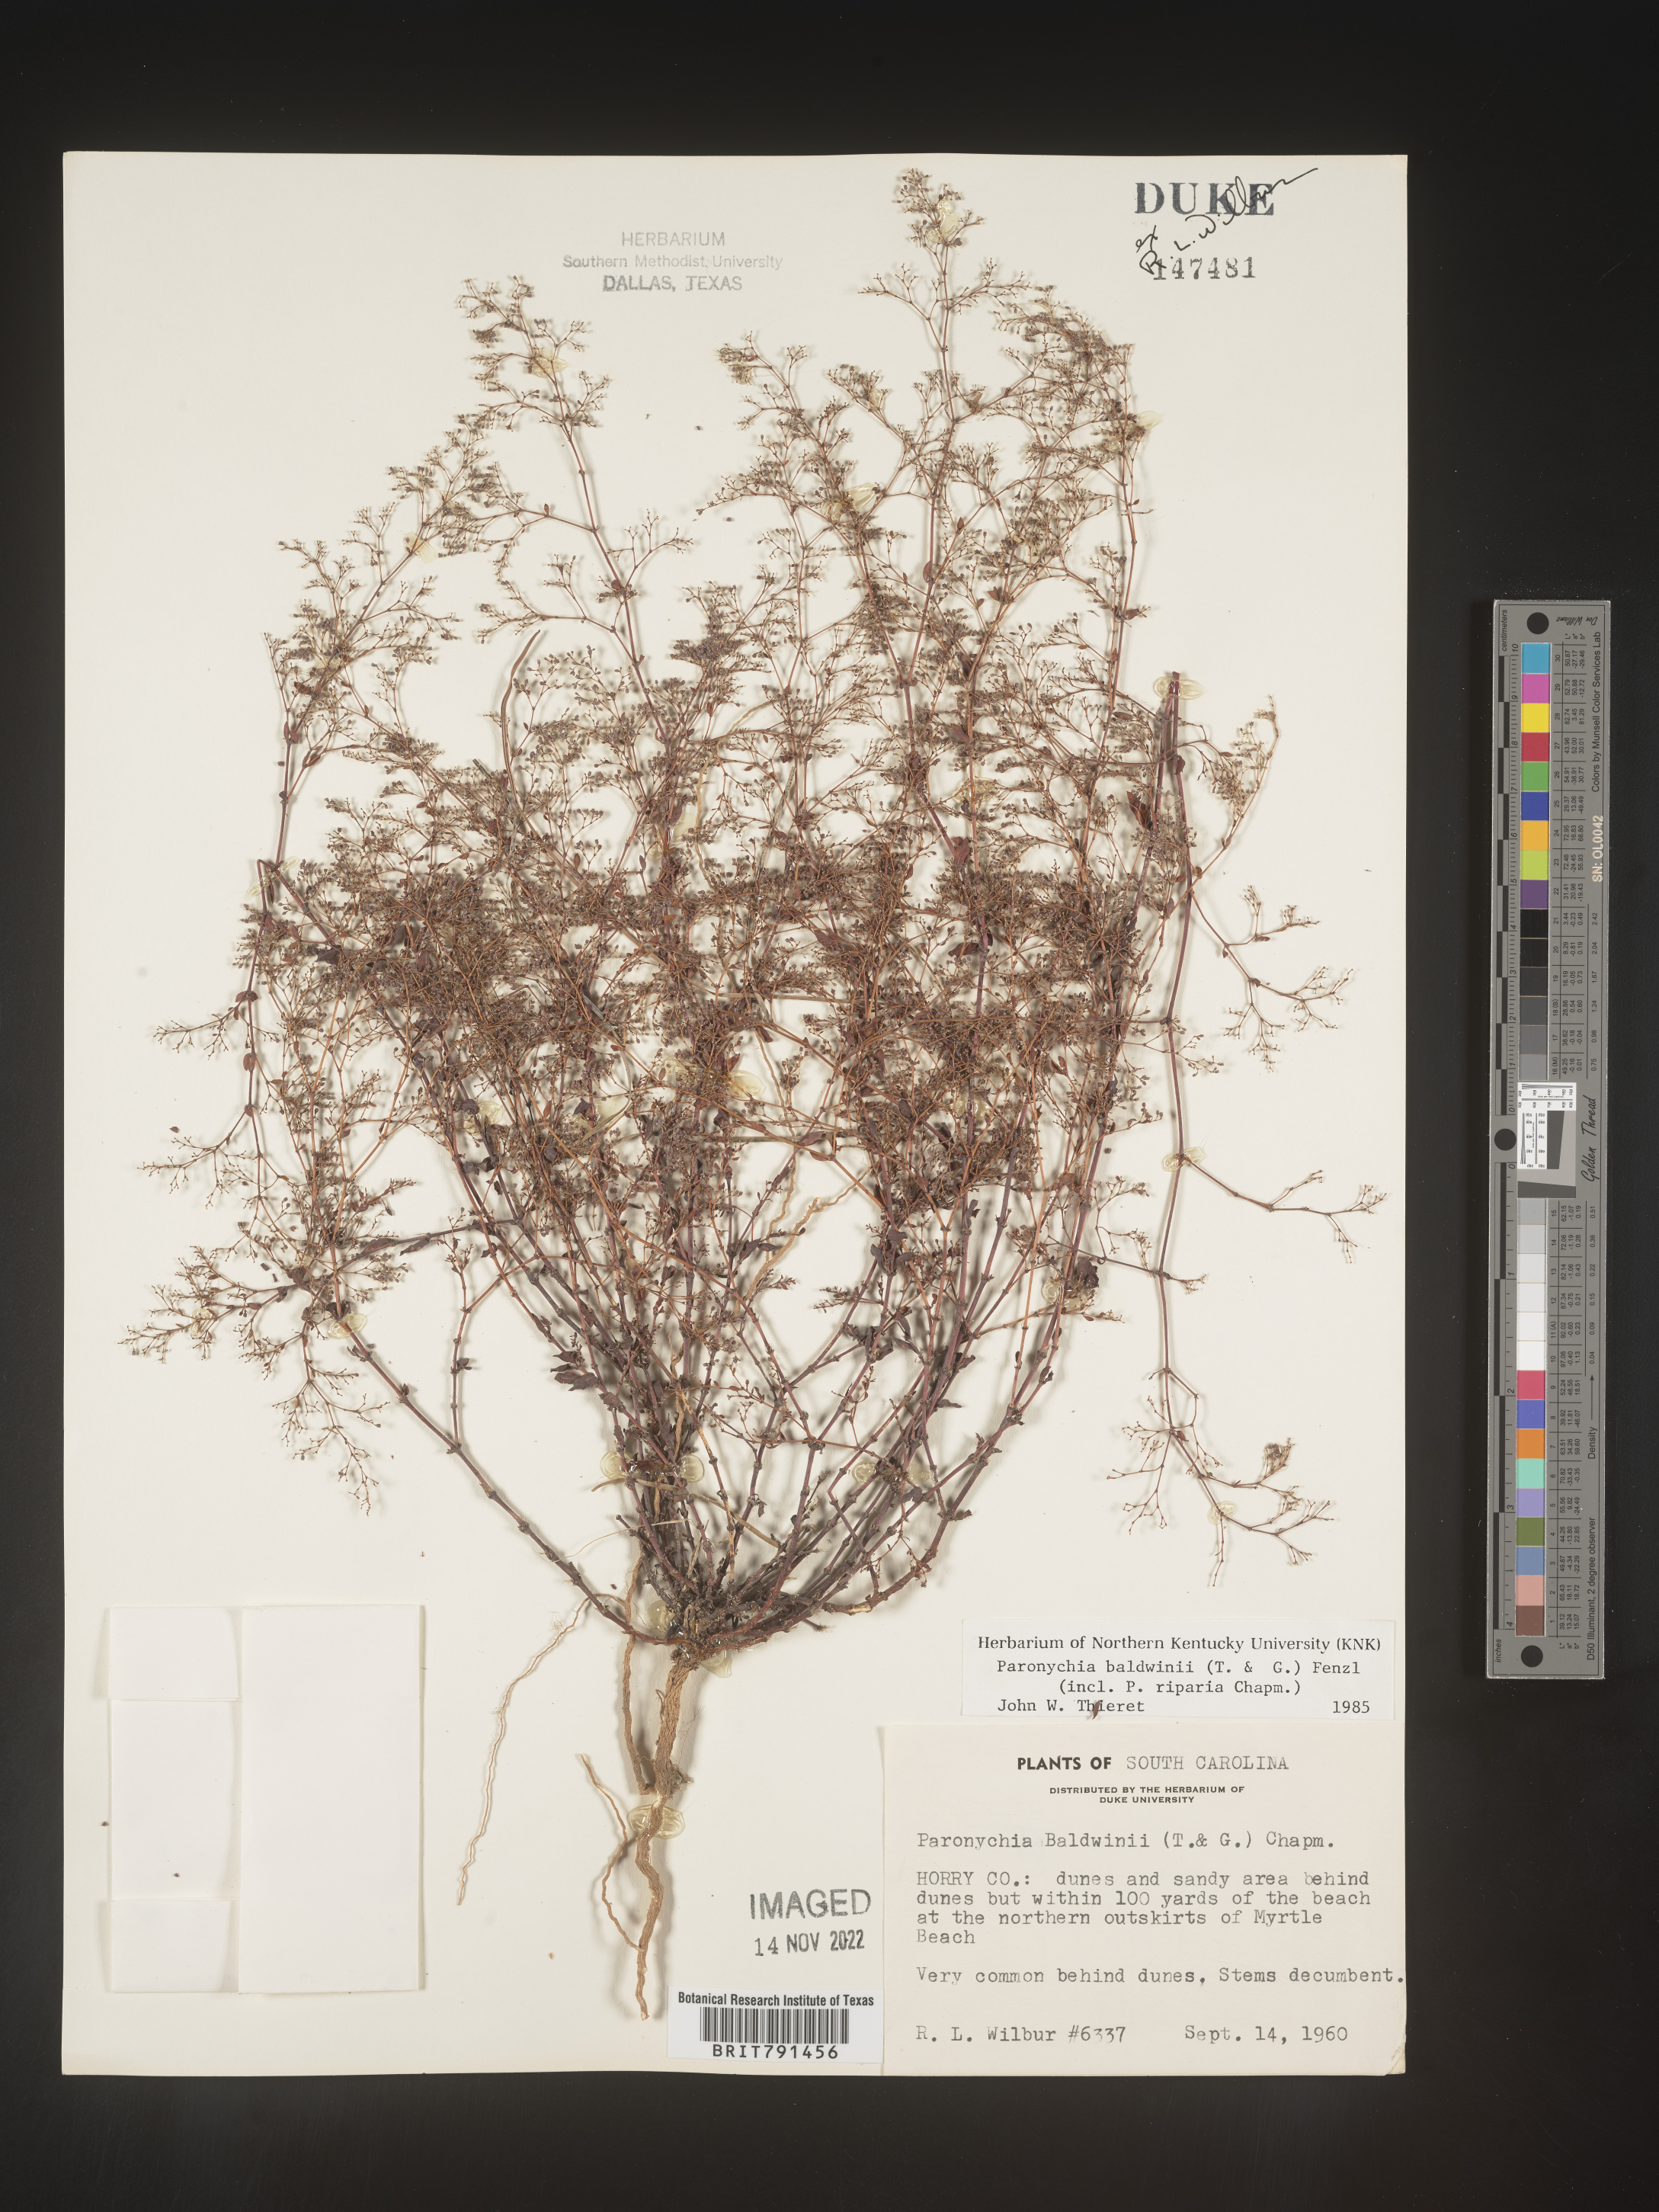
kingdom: Plantae
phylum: Tracheophyta
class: Magnoliopsida
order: Caryophyllales
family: Caryophyllaceae
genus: Paronychia
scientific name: Paronychia baldwinii
